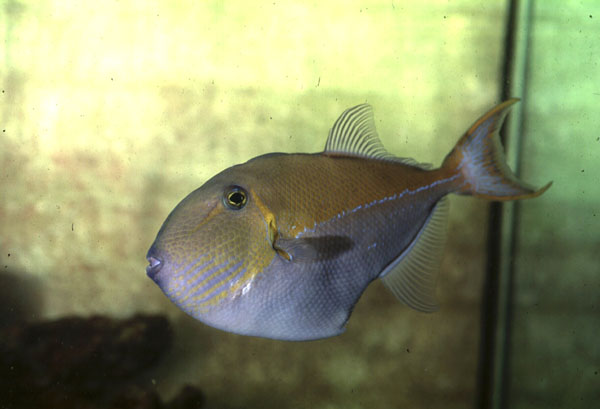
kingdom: Animalia
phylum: Chordata
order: Tetraodontiformes
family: Balistidae
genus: Xanthichthys
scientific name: Xanthichthys caeruleolineatus
